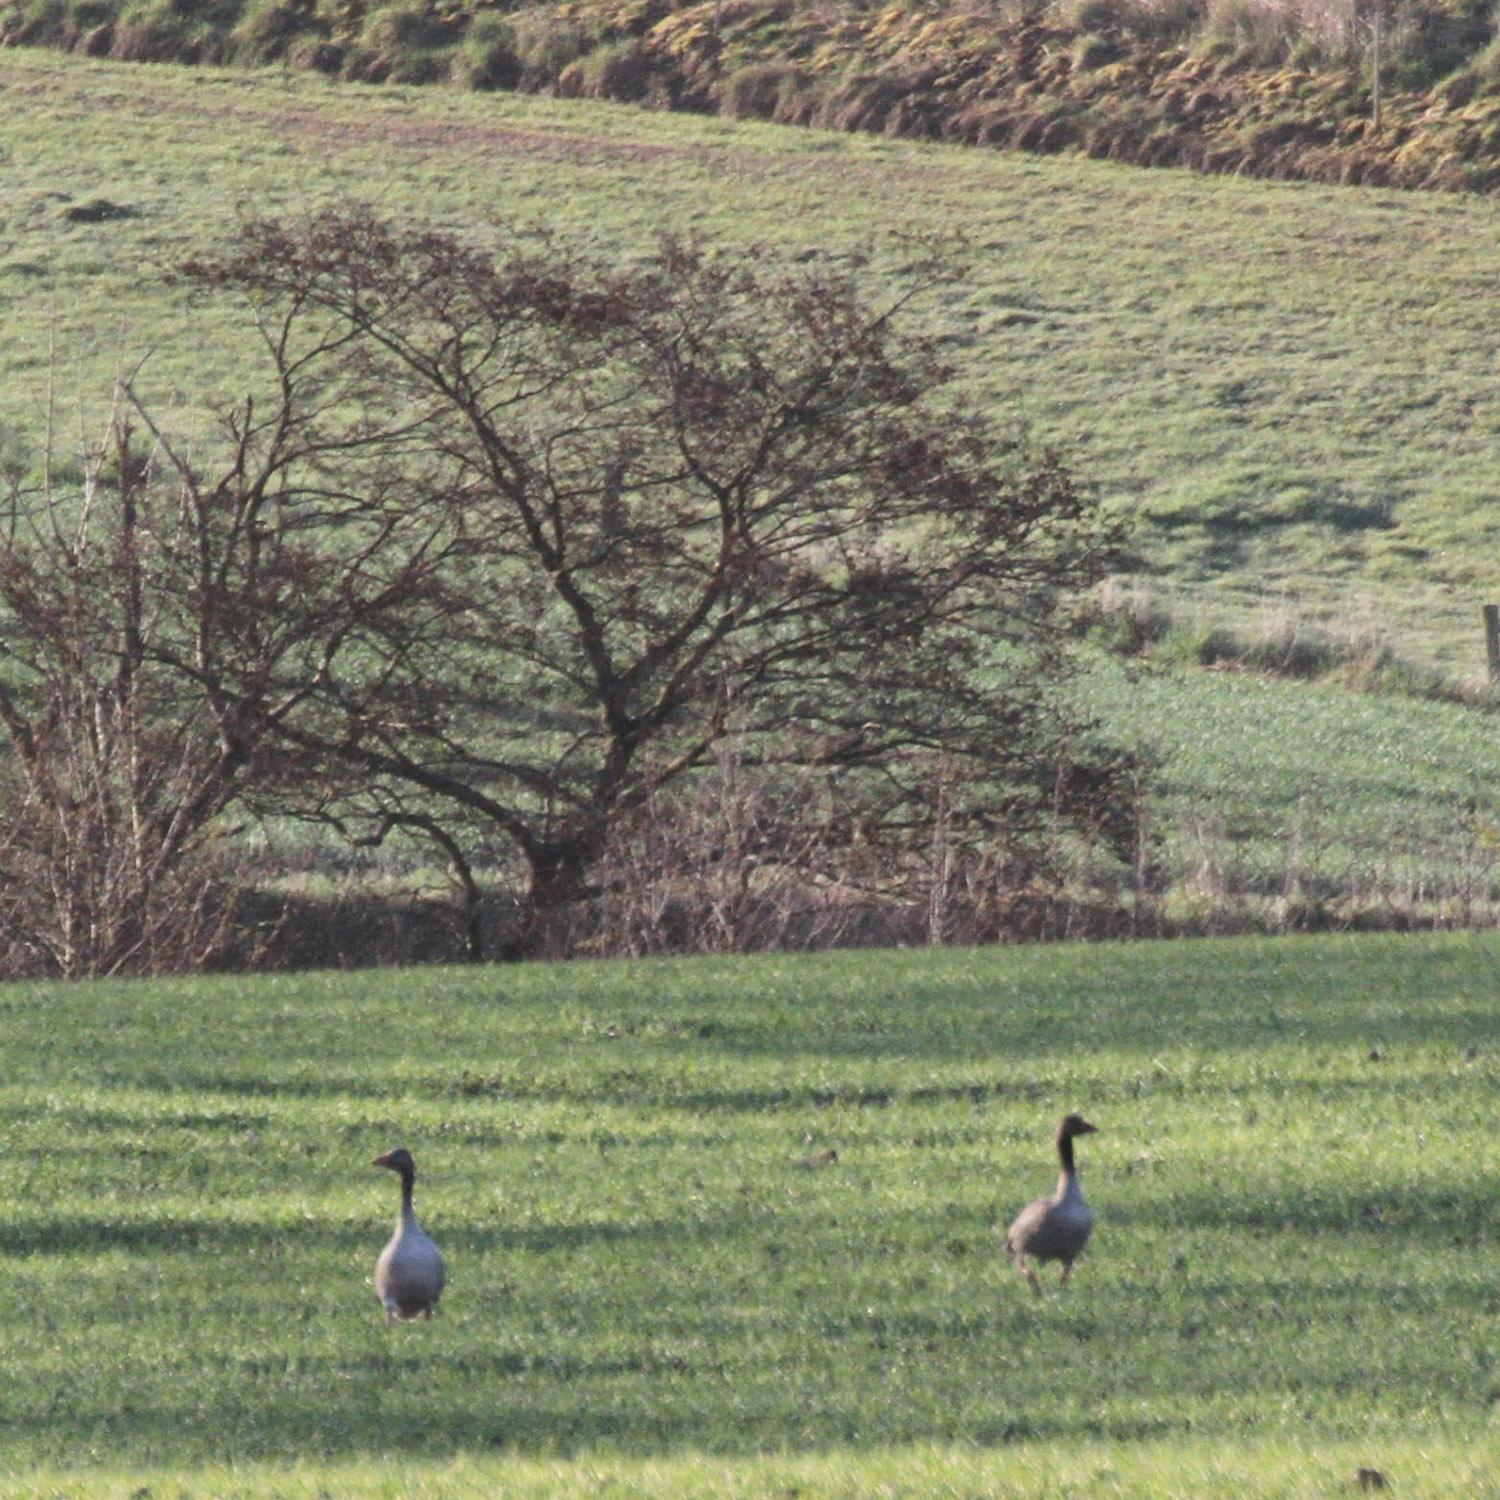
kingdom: Animalia
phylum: Chordata
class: Aves
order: Anseriformes
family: Anatidae
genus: Anser
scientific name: Anser anser
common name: Grågås
